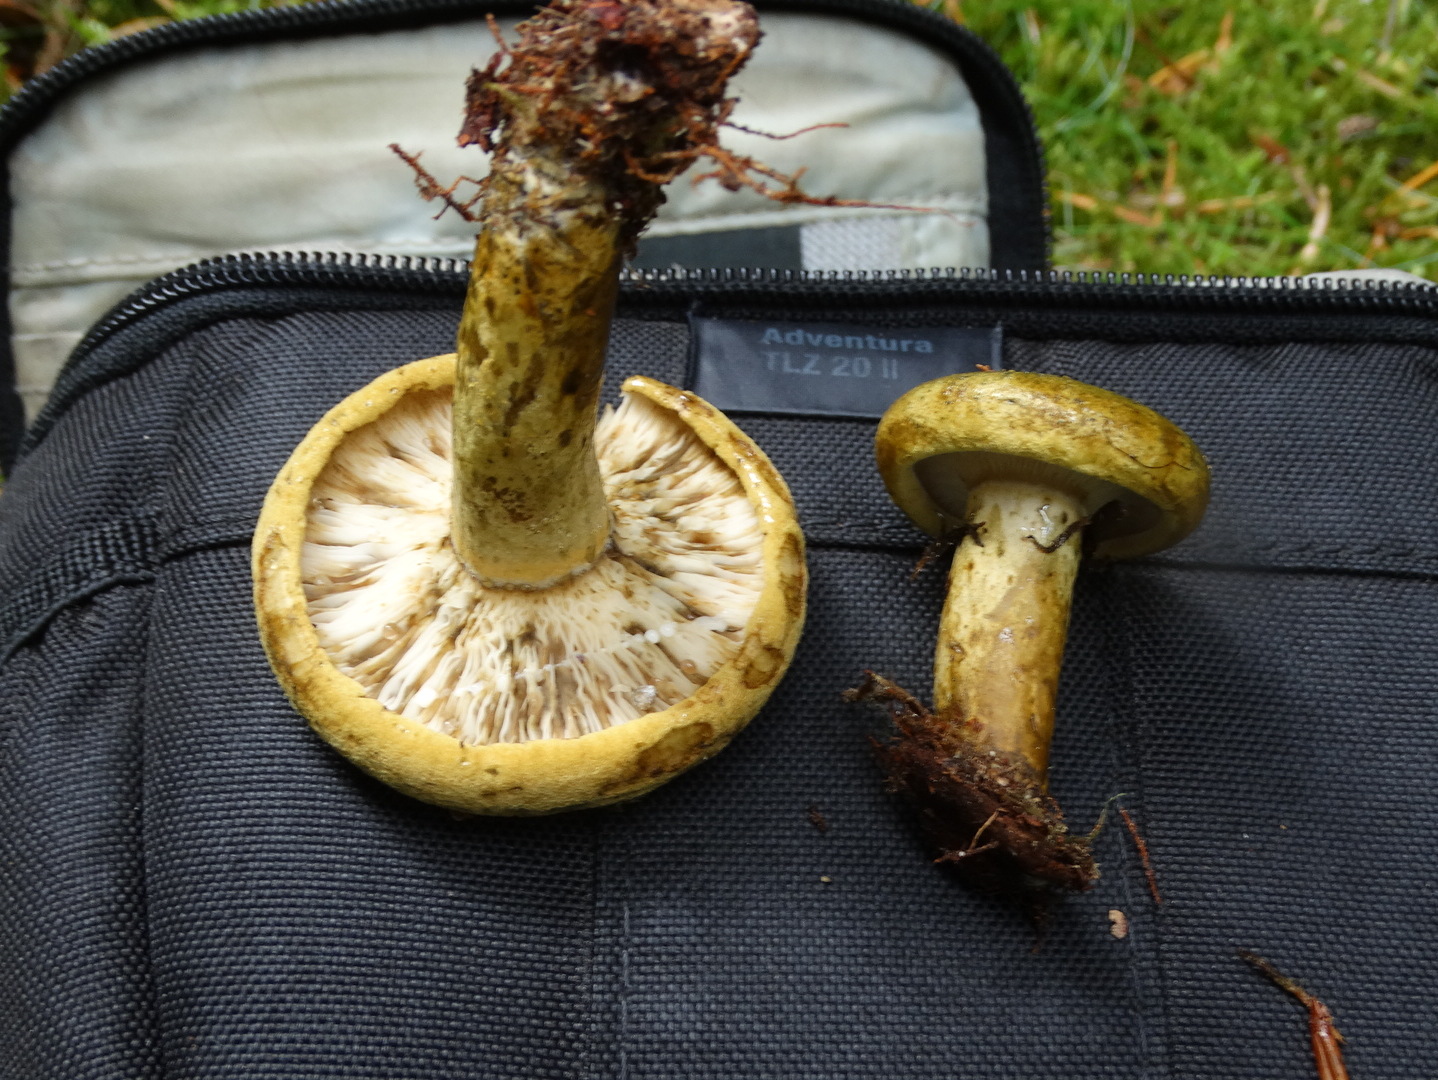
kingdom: Fungi
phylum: Basidiomycota
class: Agaricomycetes
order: Russulales
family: Russulaceae
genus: Lactarius
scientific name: Lactarius necator
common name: manddraber-mælkehat
